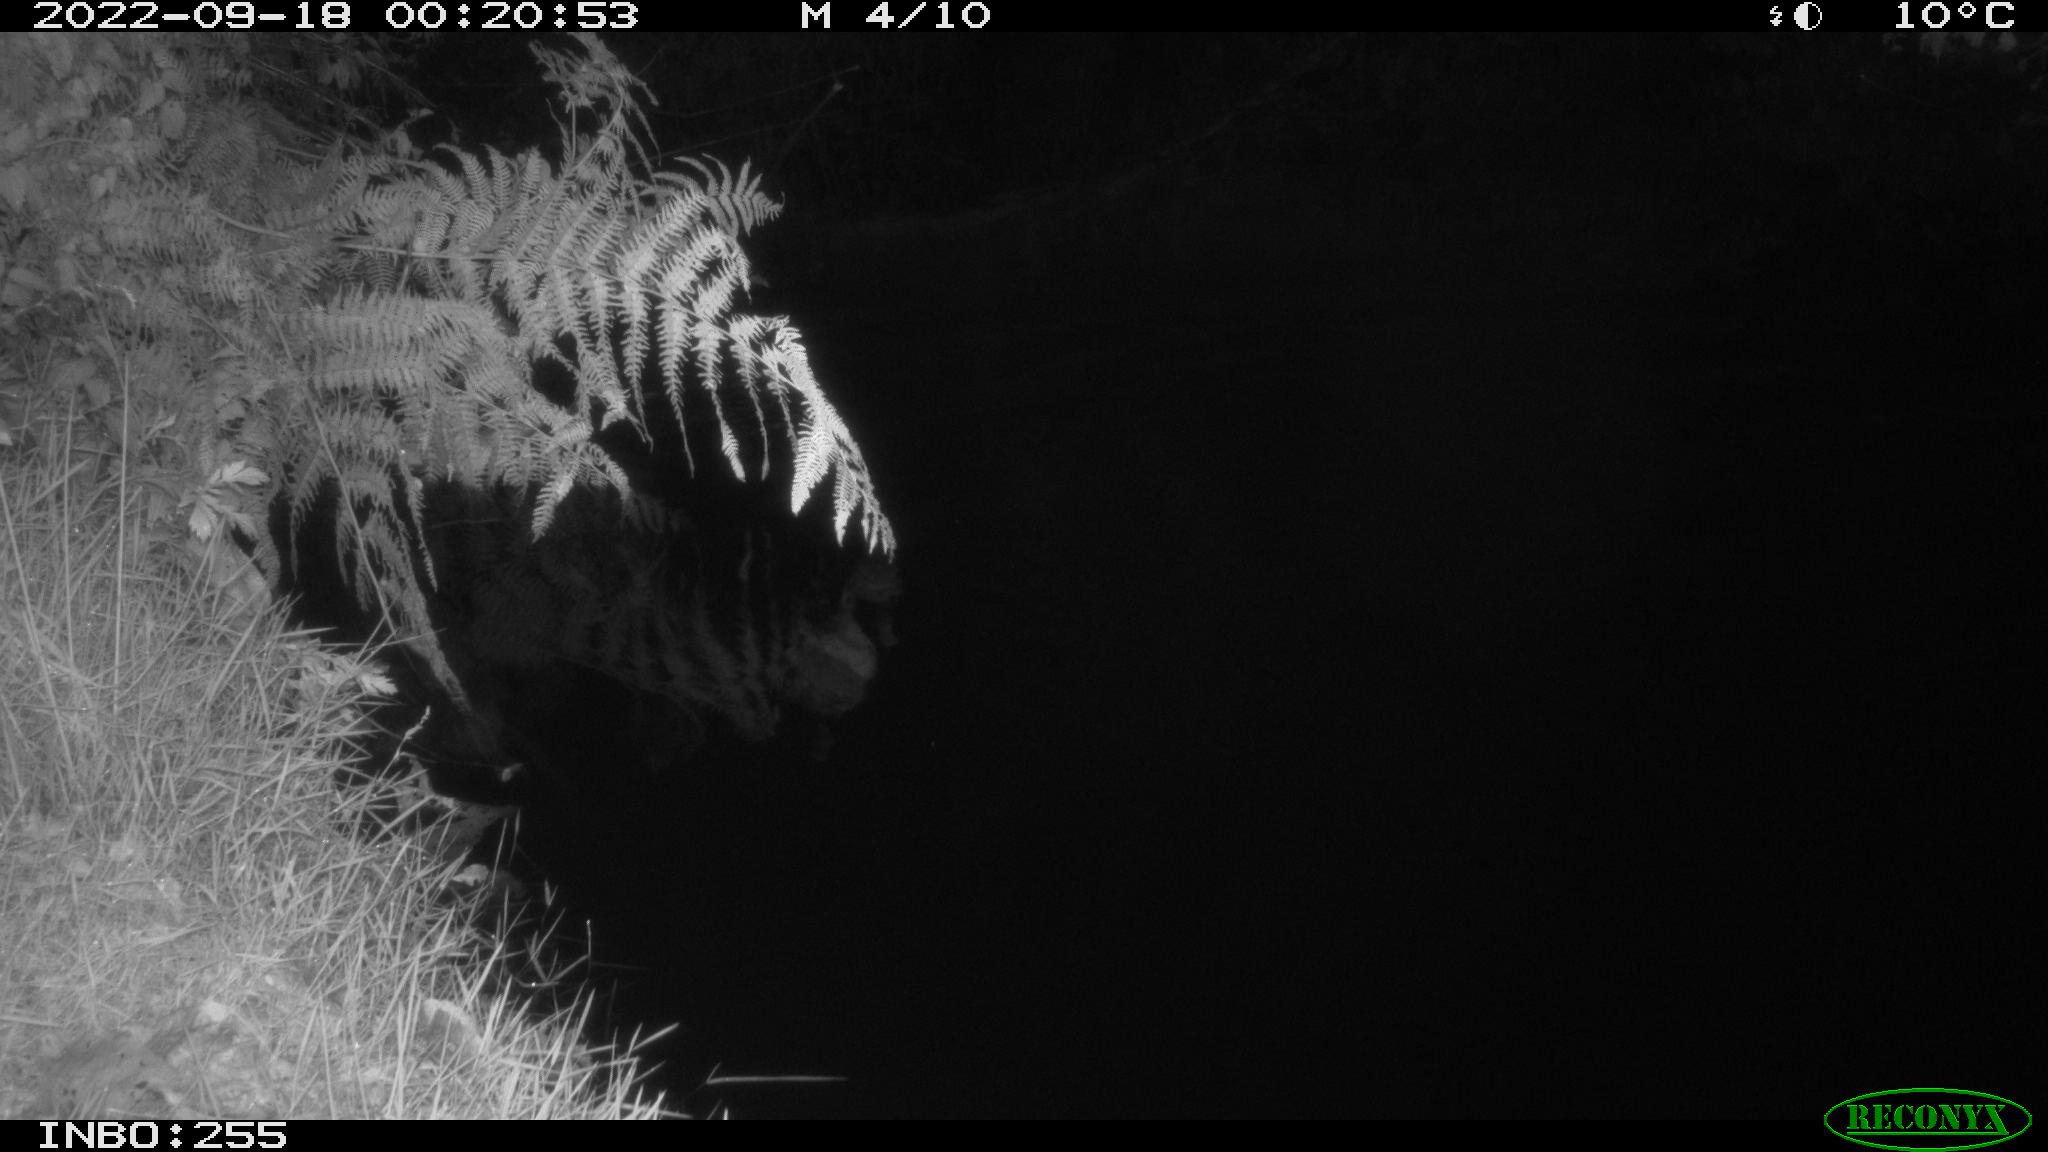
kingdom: Animalia
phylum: Chordata
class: Mammalia
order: Rodentia
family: Muridae
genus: Rattus
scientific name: Rattus norvegicus
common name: Brown rat
